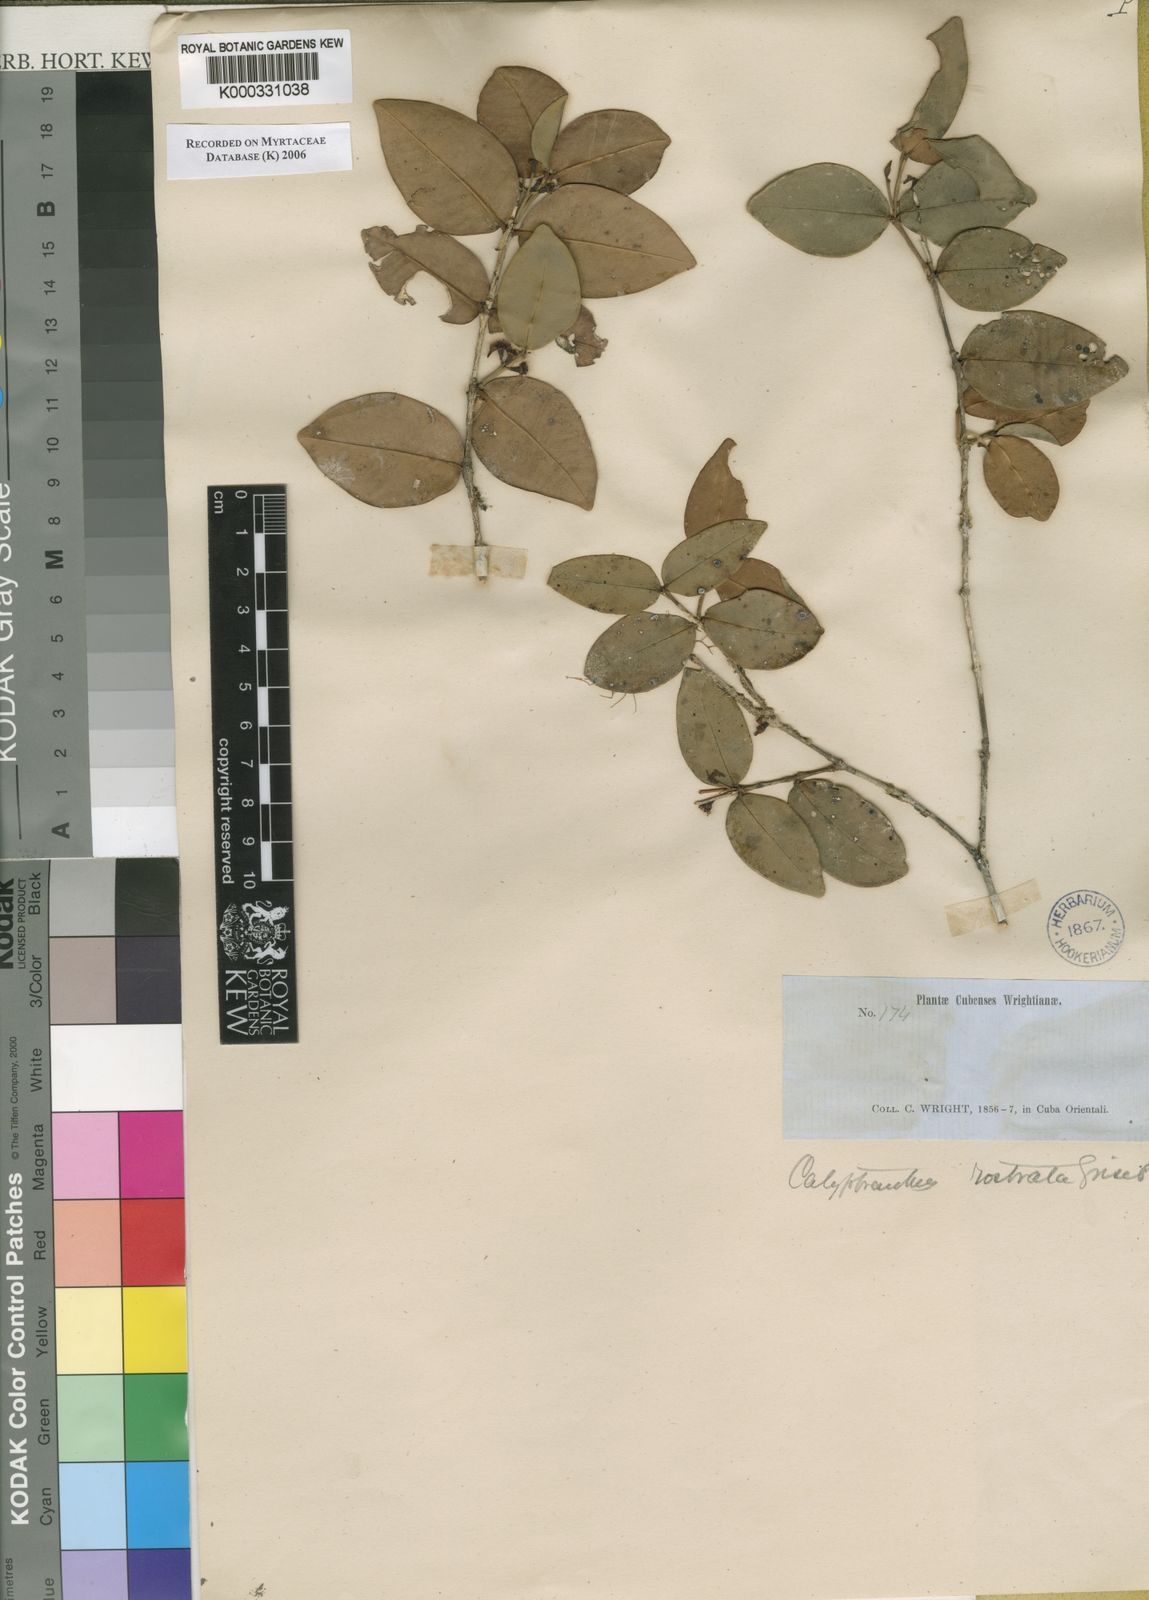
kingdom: Plantae
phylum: Tracheophyta
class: Magnoliopsida
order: Myrtales
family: Myrtaceae
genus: Myrcia
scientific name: Myrcia adunca
